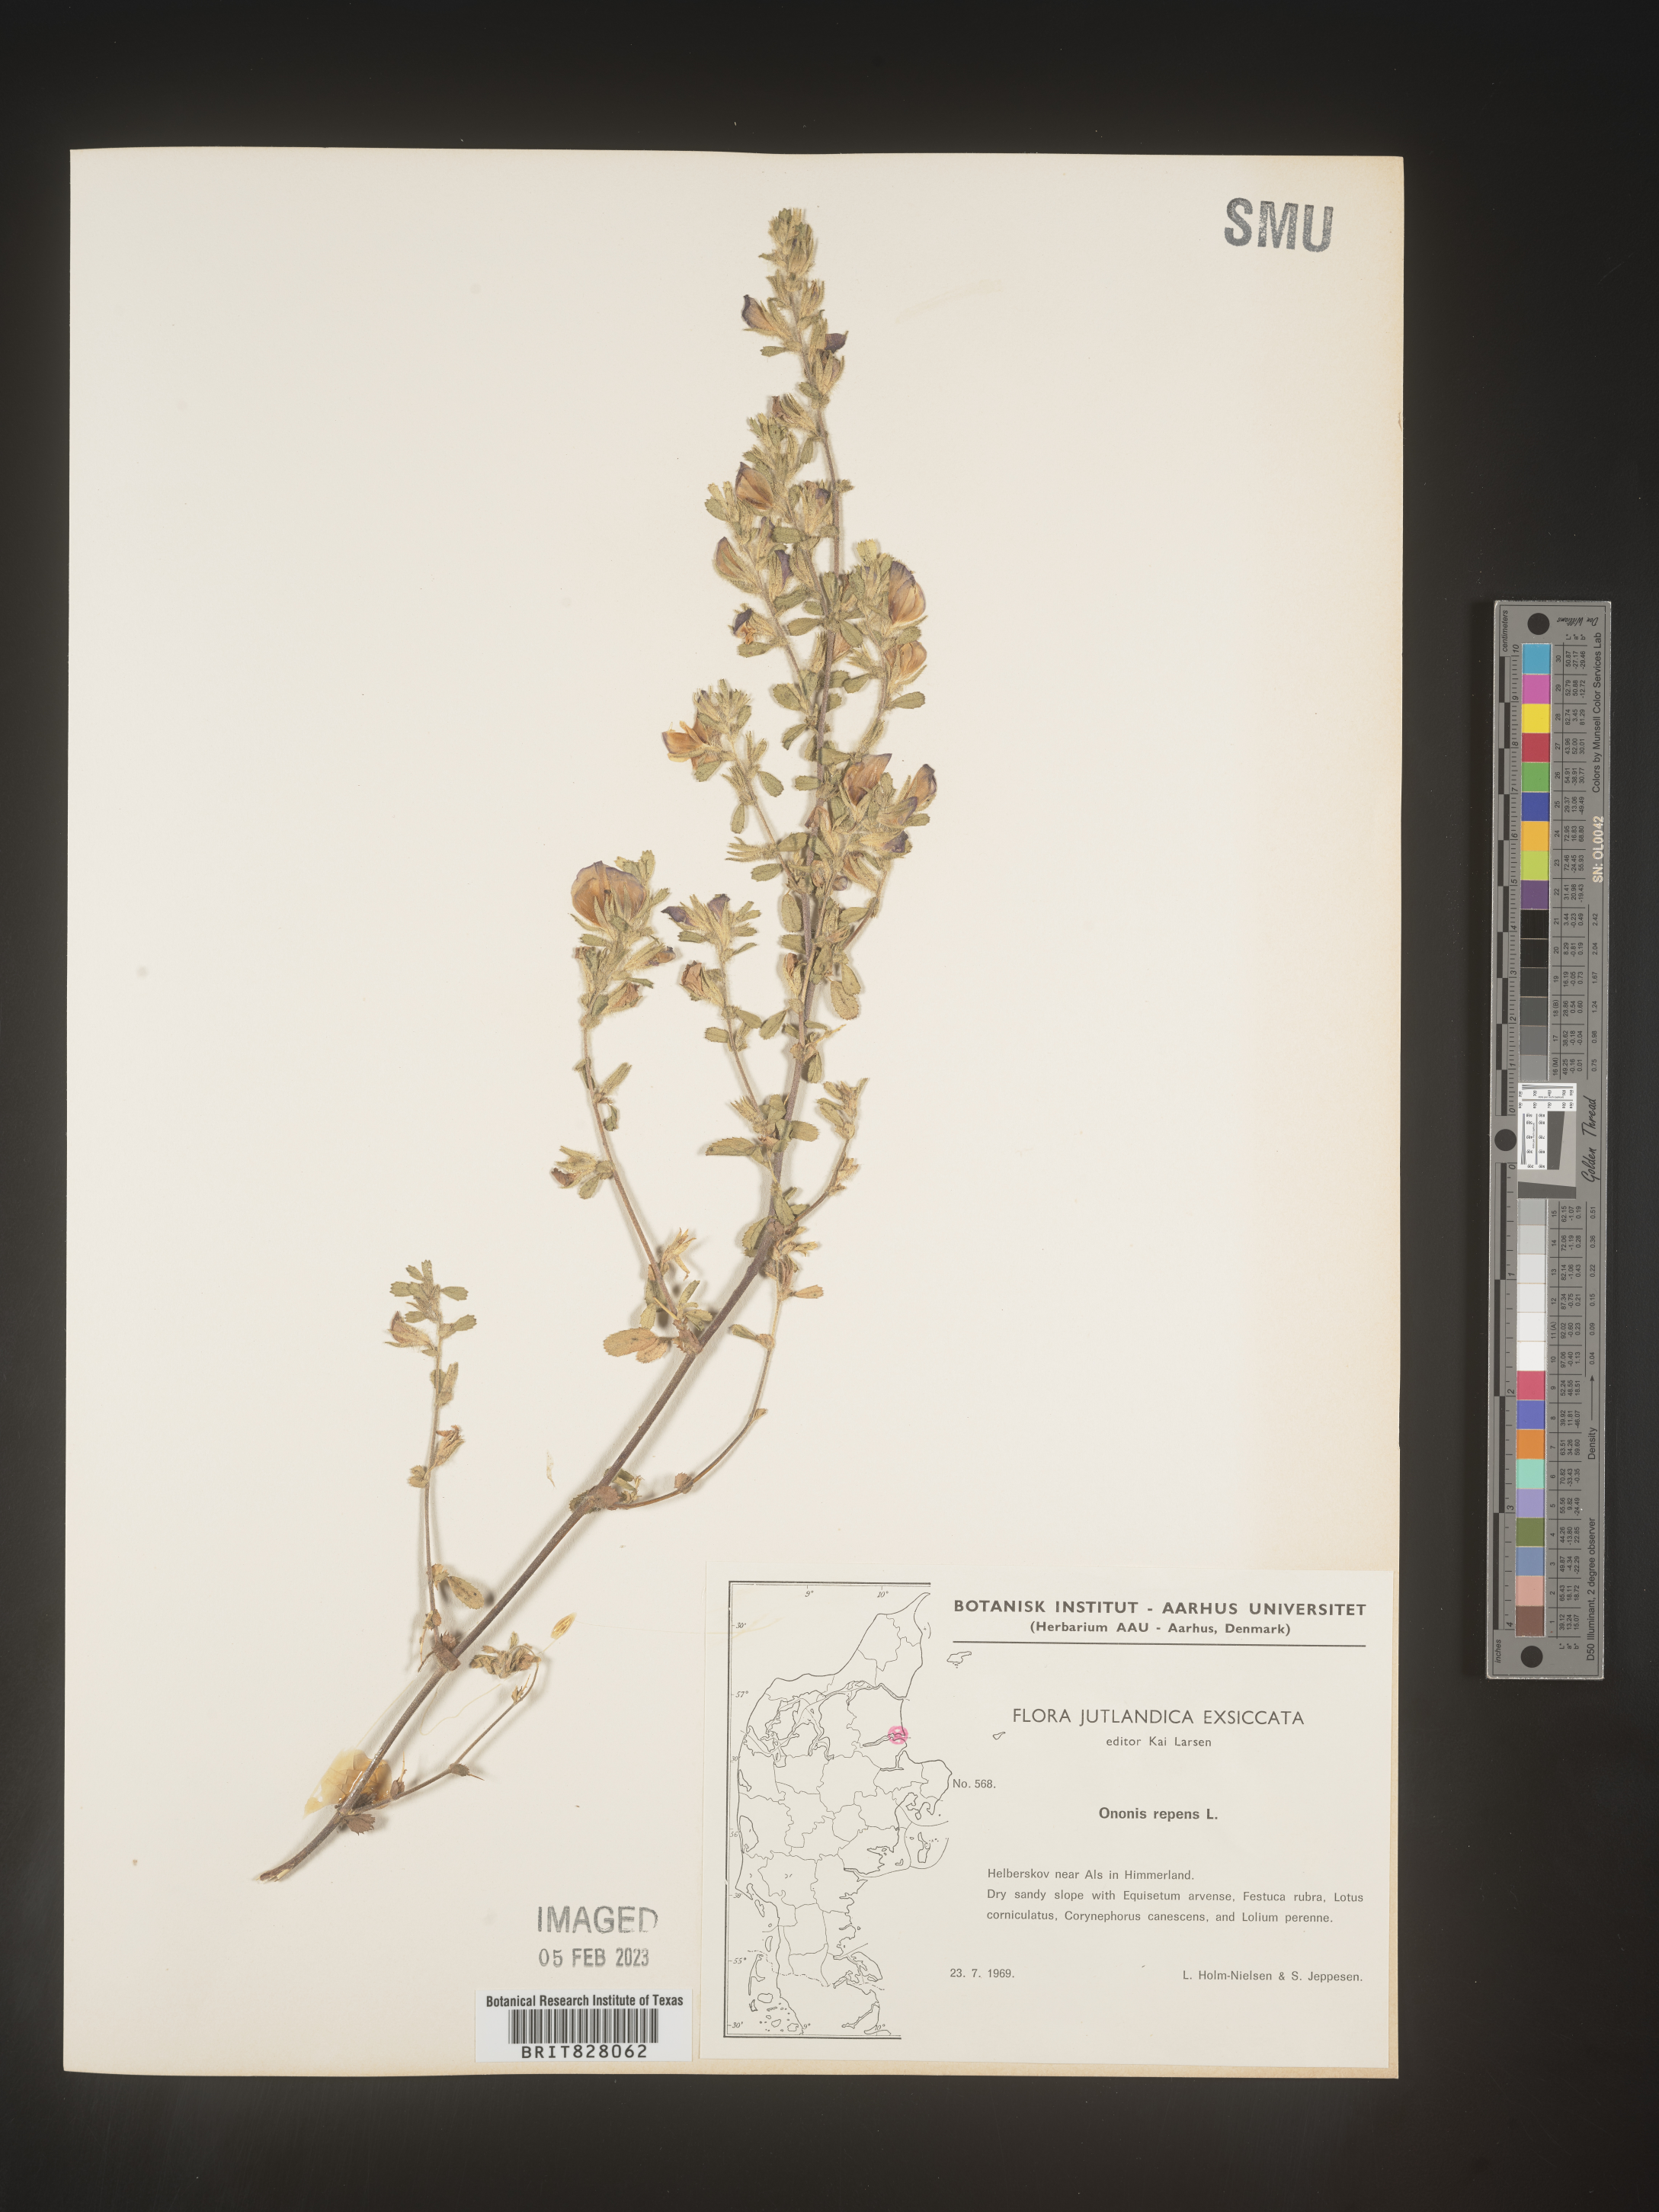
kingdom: Plantae
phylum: Tracheophyta
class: Magnoliopsida
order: Fabales
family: Fabaceae
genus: Ononis
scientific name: Ononis
